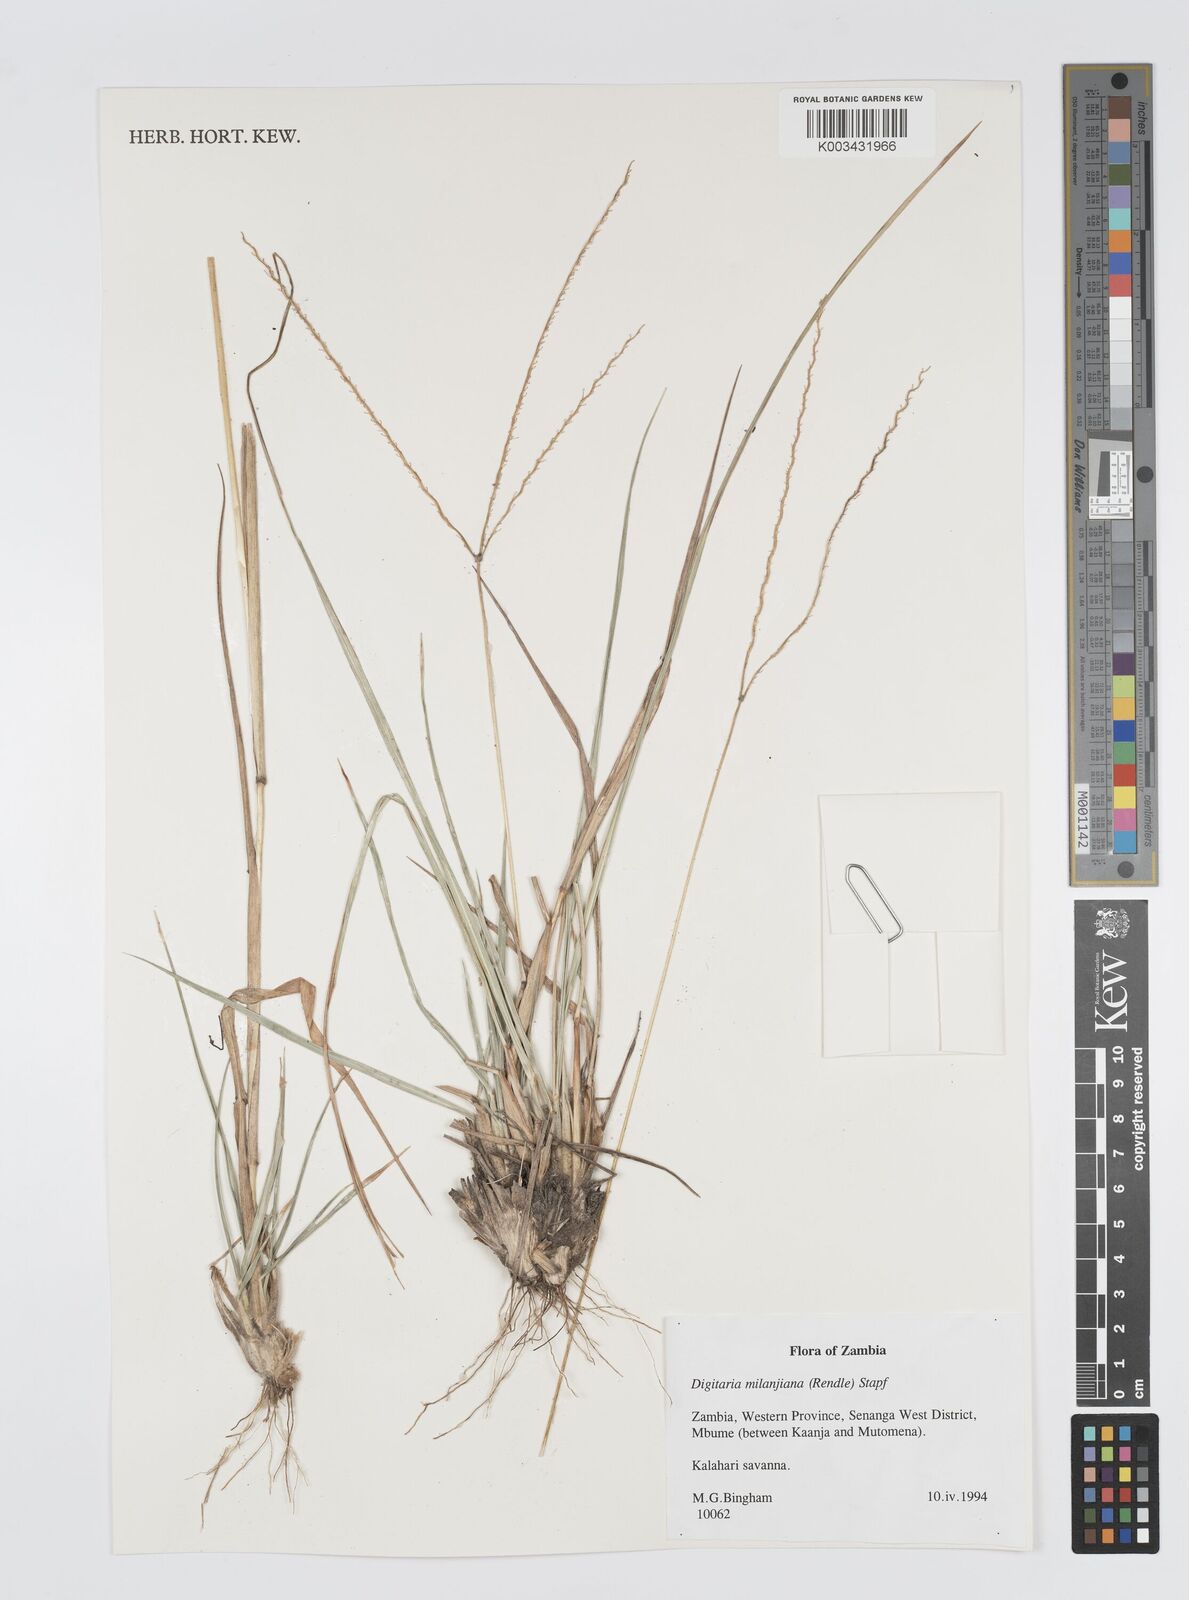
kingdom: Plantae
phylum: Tracheophyta
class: Liliopsida
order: Poales
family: Poaceae
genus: Digitaria
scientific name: Digitaria milanjiana
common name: Madagascar crabgrass
